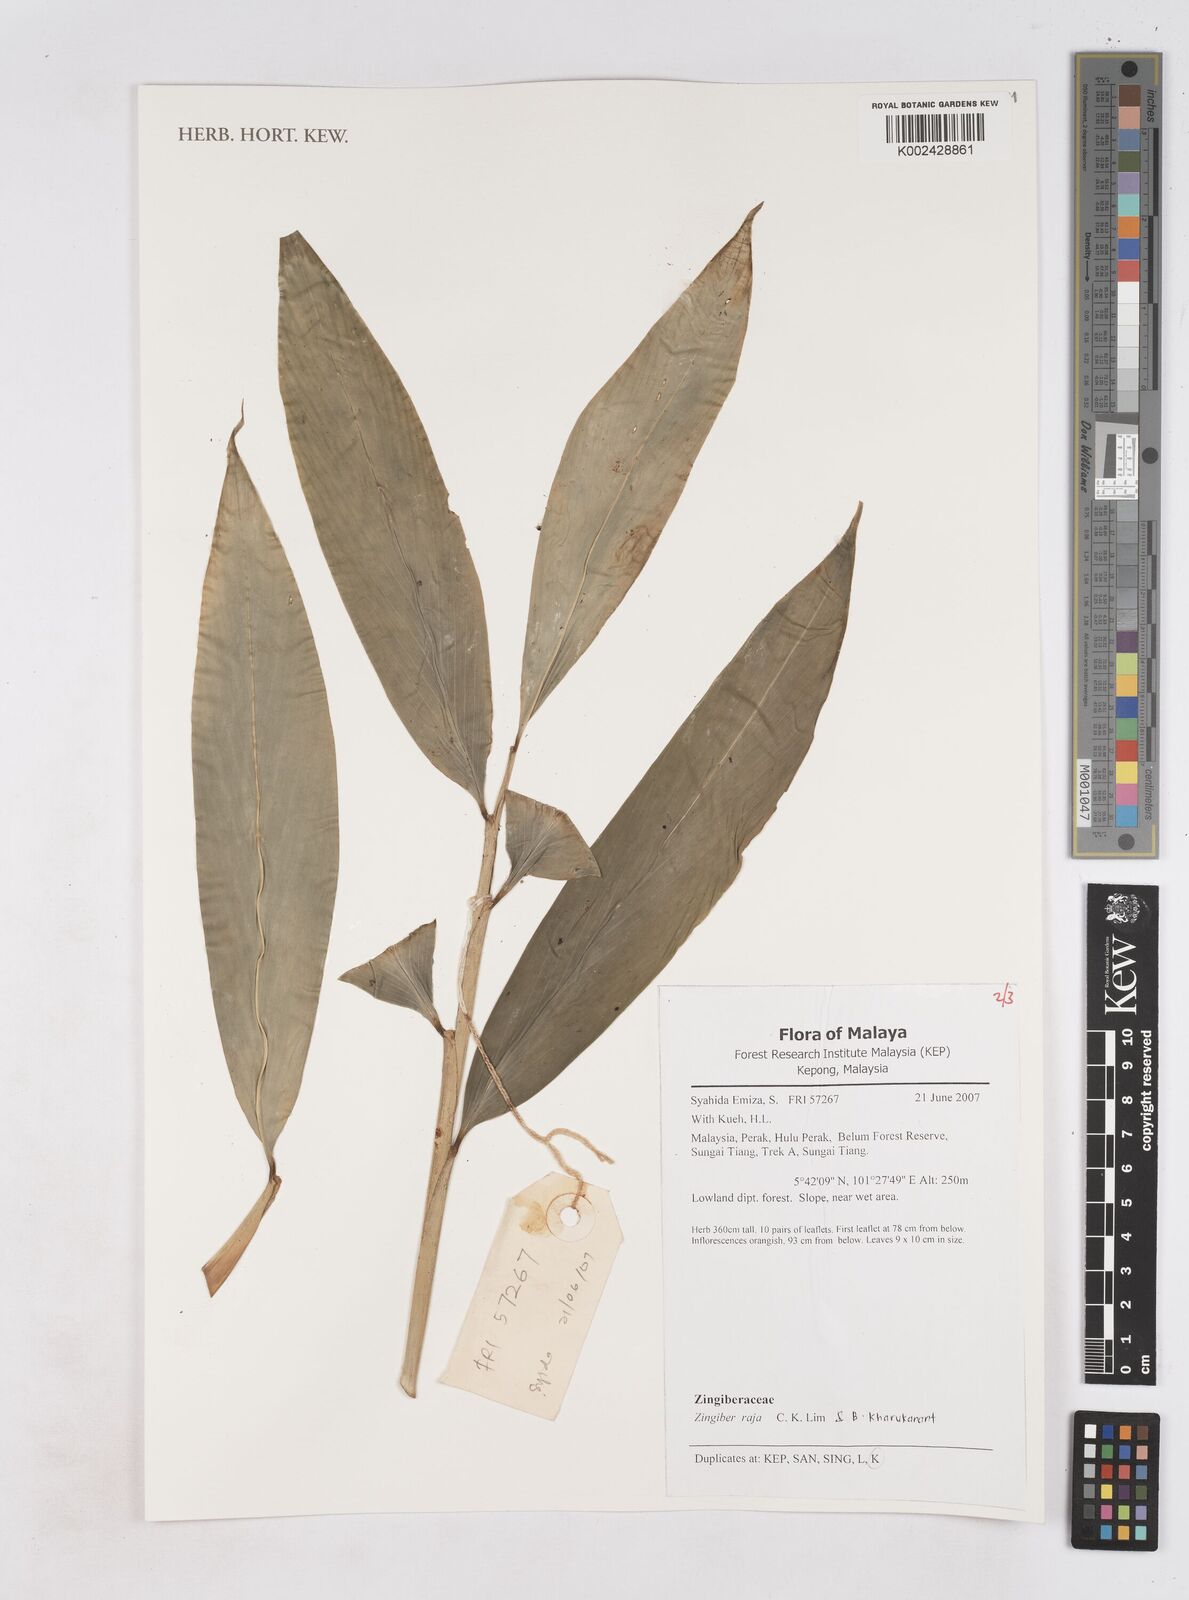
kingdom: Plantae
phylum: Tracheophyta
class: Liliopsida
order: Zingiberales
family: Zingiberaceae
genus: Zingiber
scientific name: Zingiber raja
